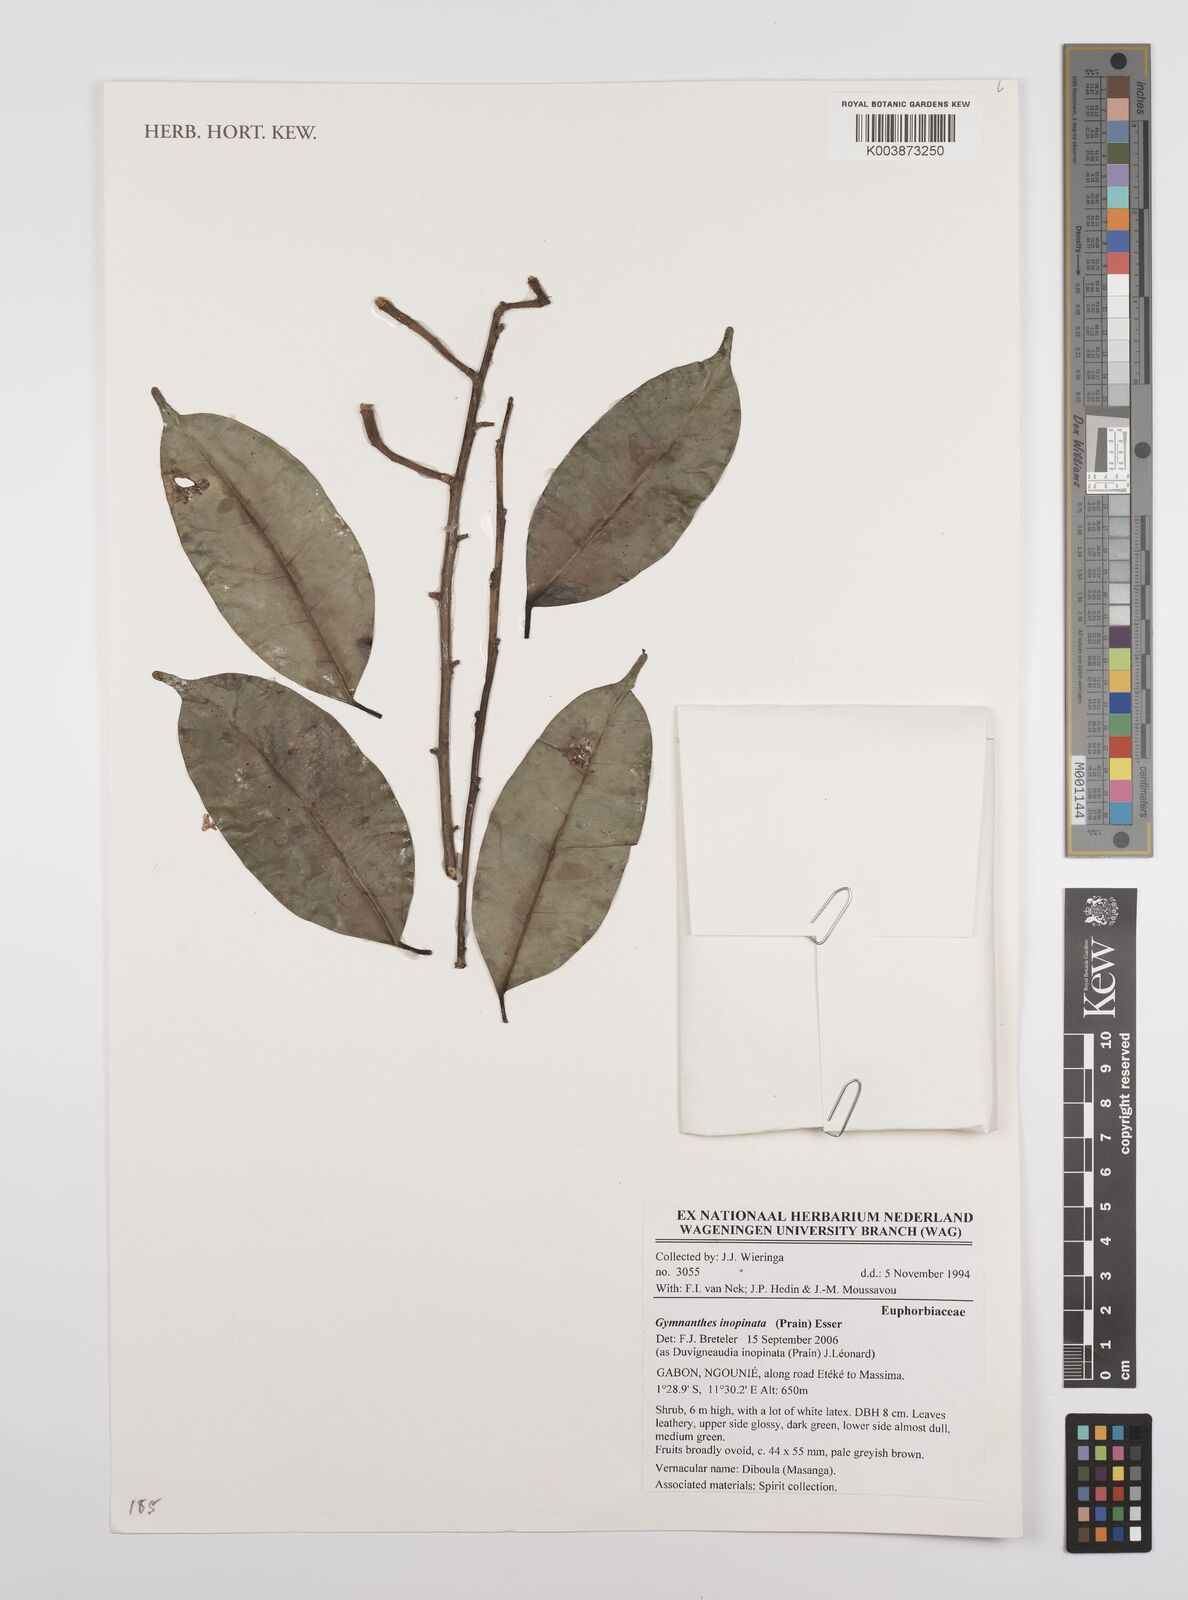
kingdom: Plantae
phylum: Tracheophyta
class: Magnoliopsida
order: Malpighiales
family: Euphorbiaceae
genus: Gymnanthes
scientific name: Gymnanthes inopinata
